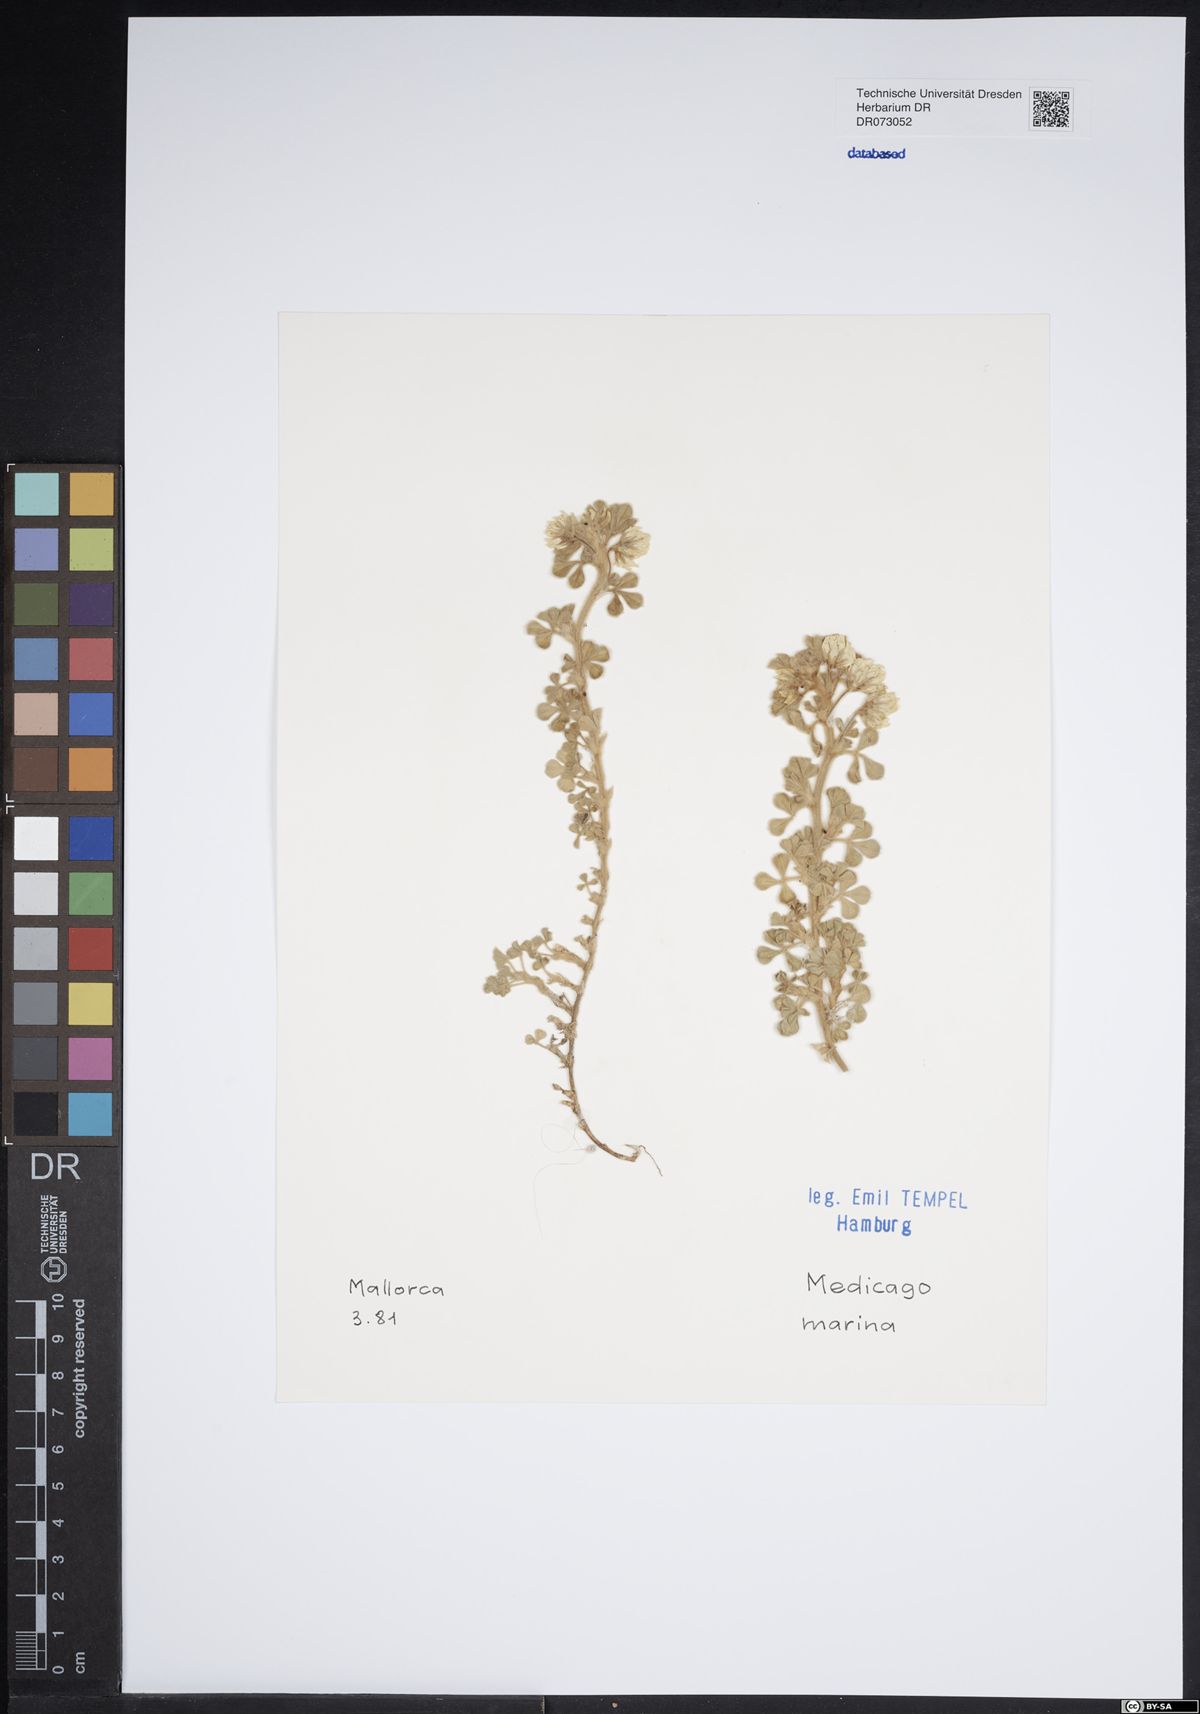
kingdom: Plantae
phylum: Tracheophyta
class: Magnoliopsida
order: Fabales
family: Fabaceae
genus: Medicago
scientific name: Medicago marina
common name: Sea medick
